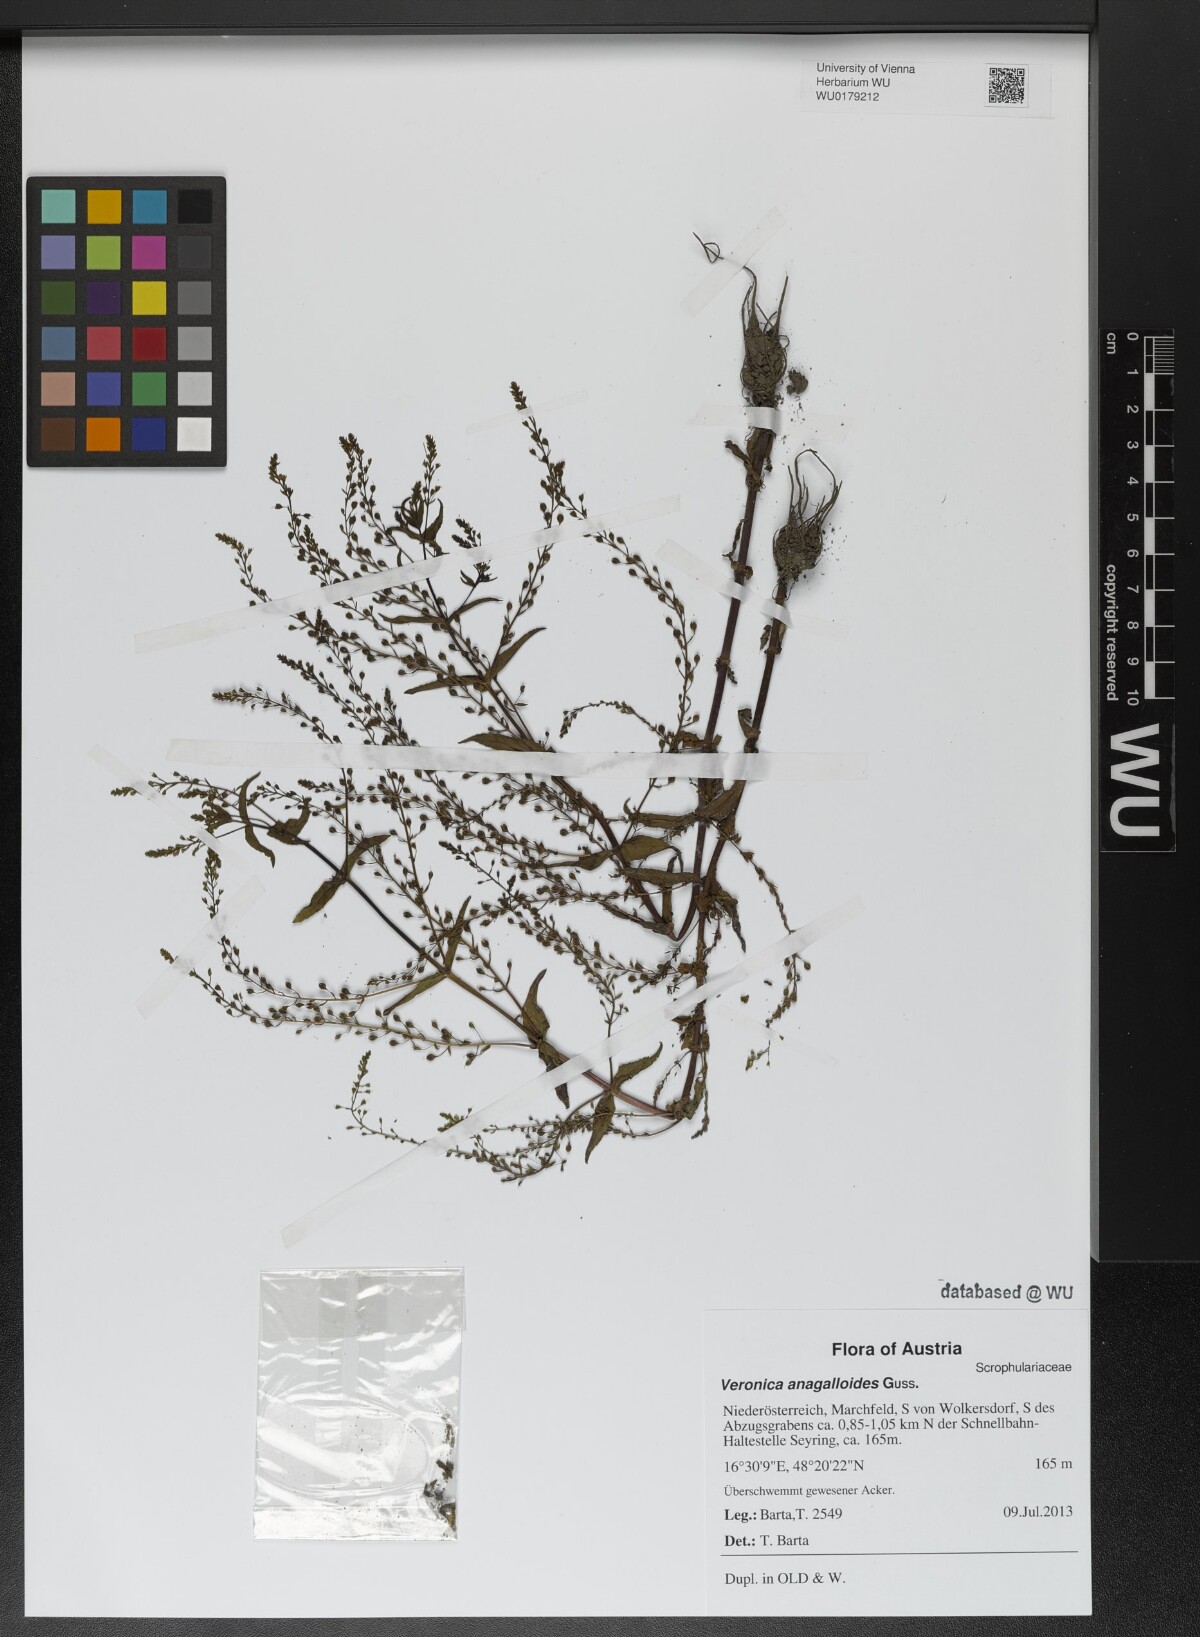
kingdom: Plantae
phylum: Tracheophyta
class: Magnoliopsida
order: Lamiales
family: Plantaginaceae
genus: Veronica
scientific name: Veronica anagalloides
